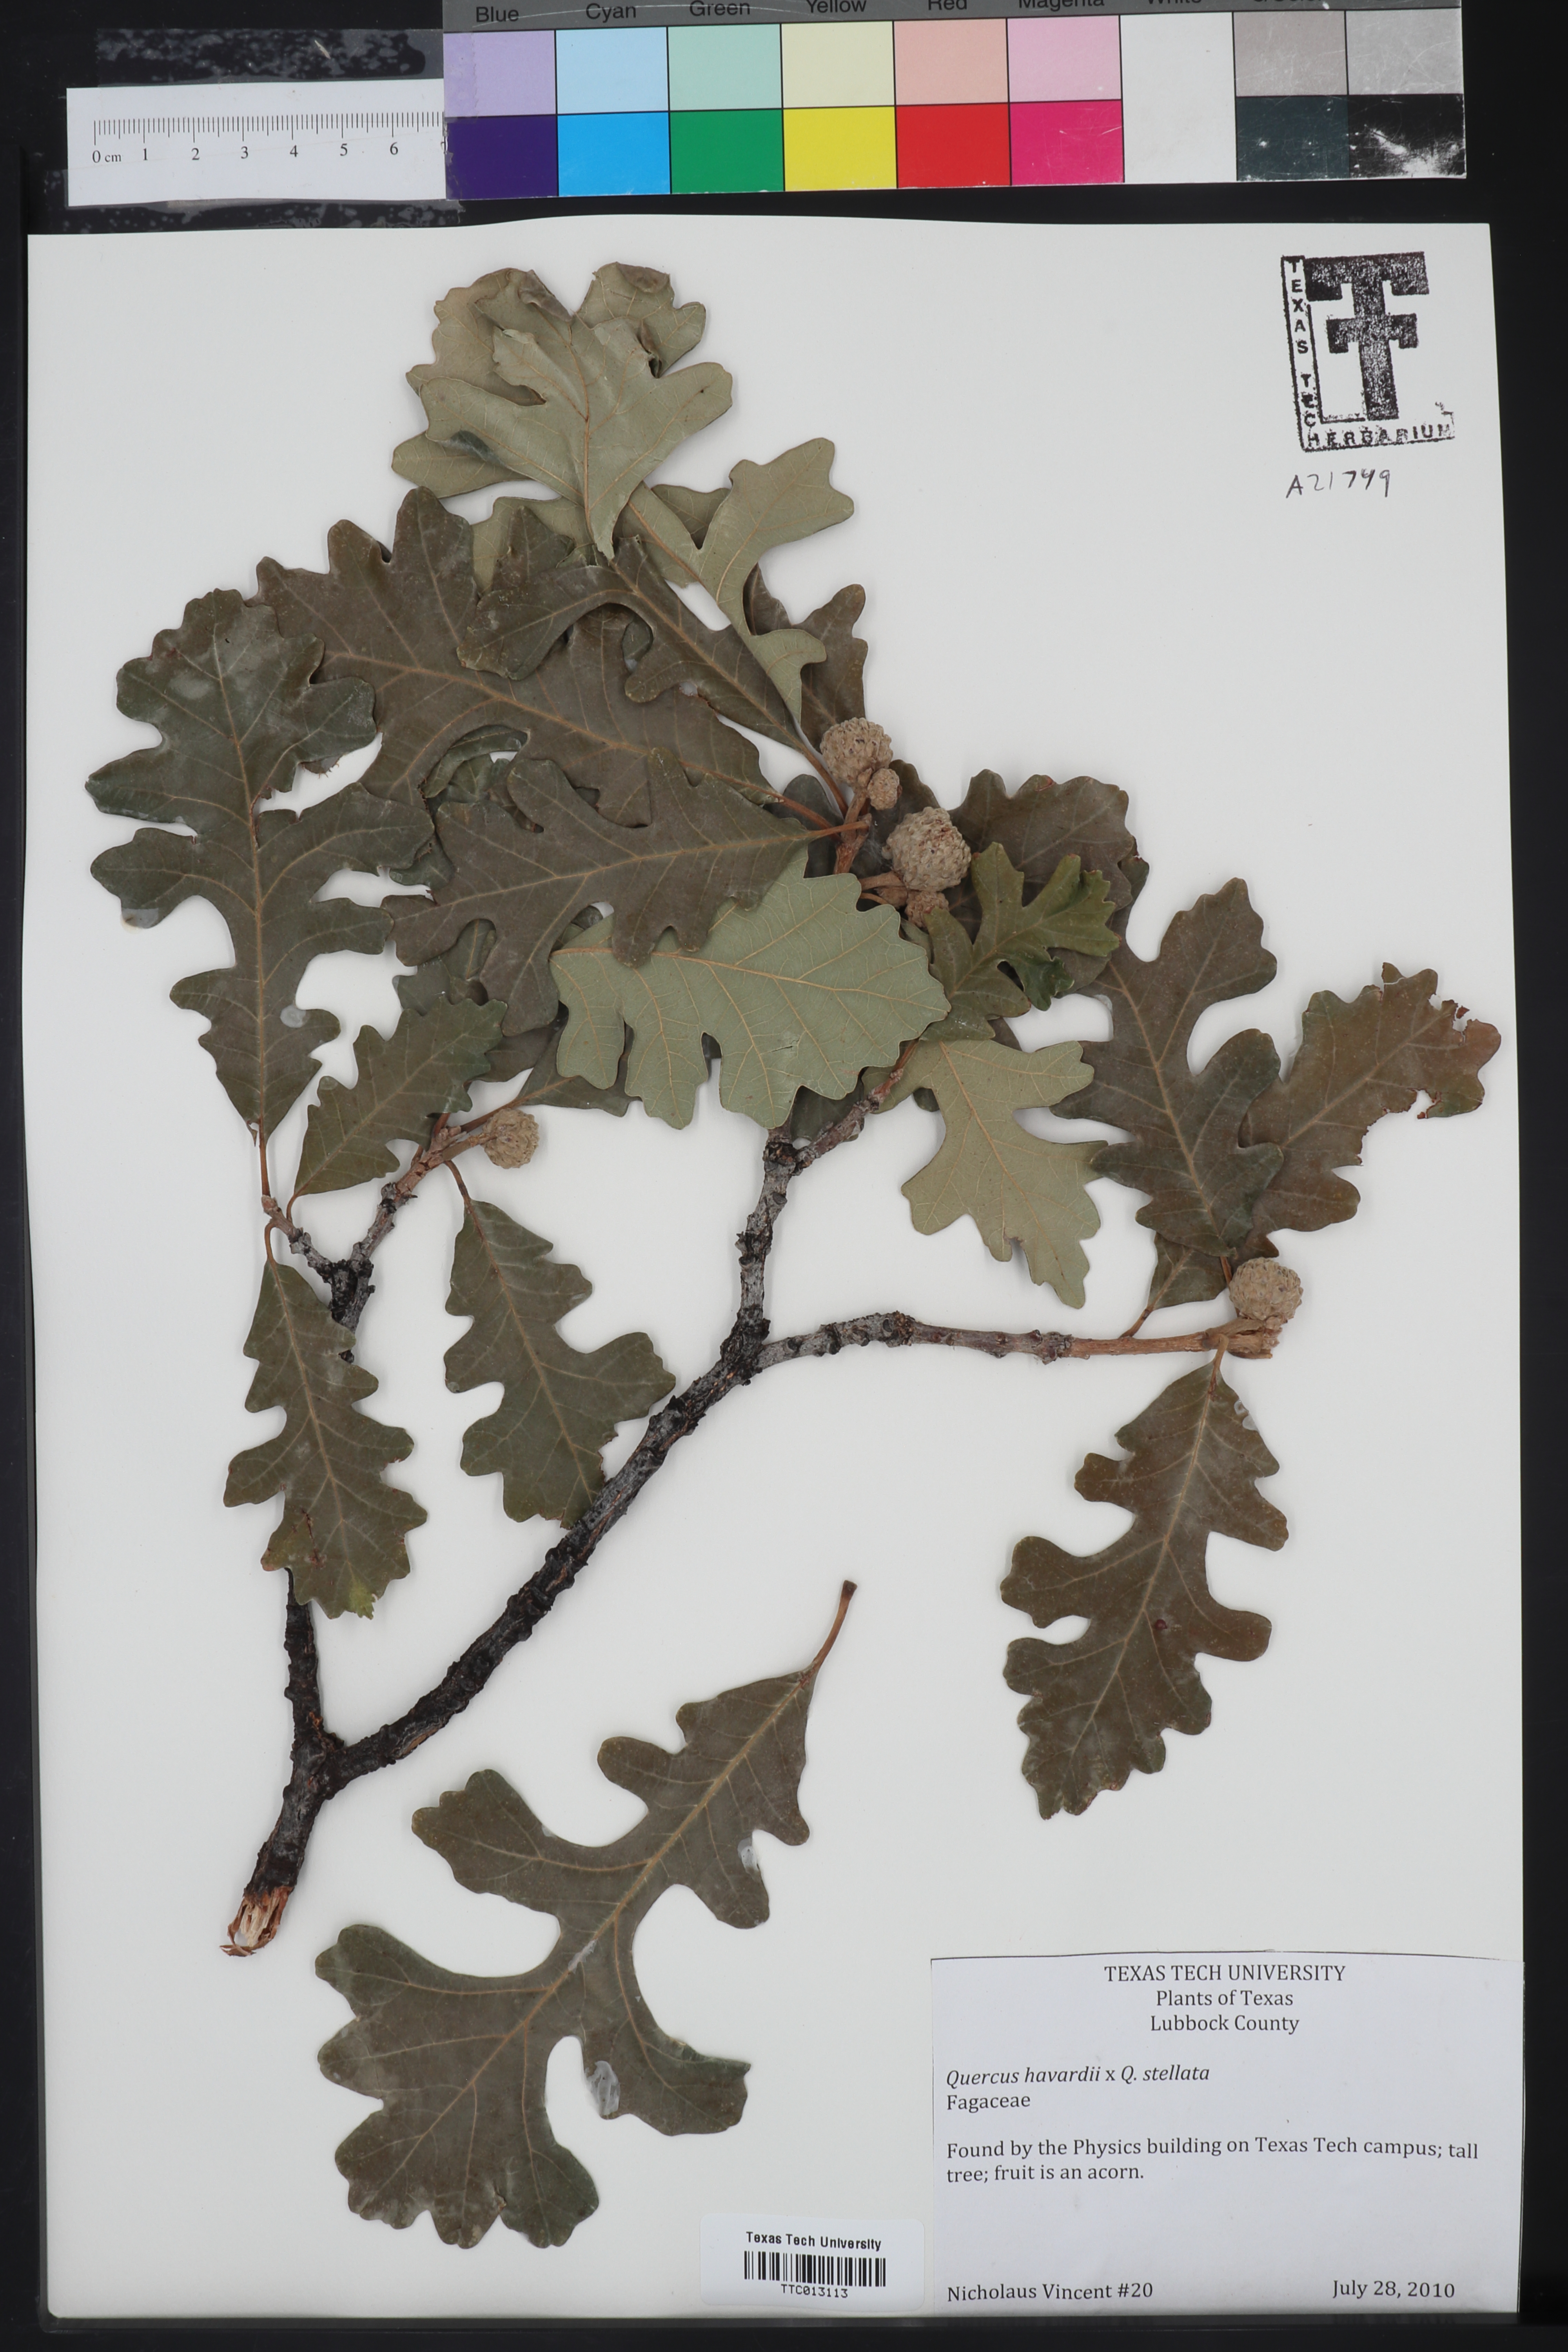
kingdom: Plantae
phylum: Tracheophyta
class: Magnoliopsida
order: Fagales
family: Fagaceae
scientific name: Fagaceae
